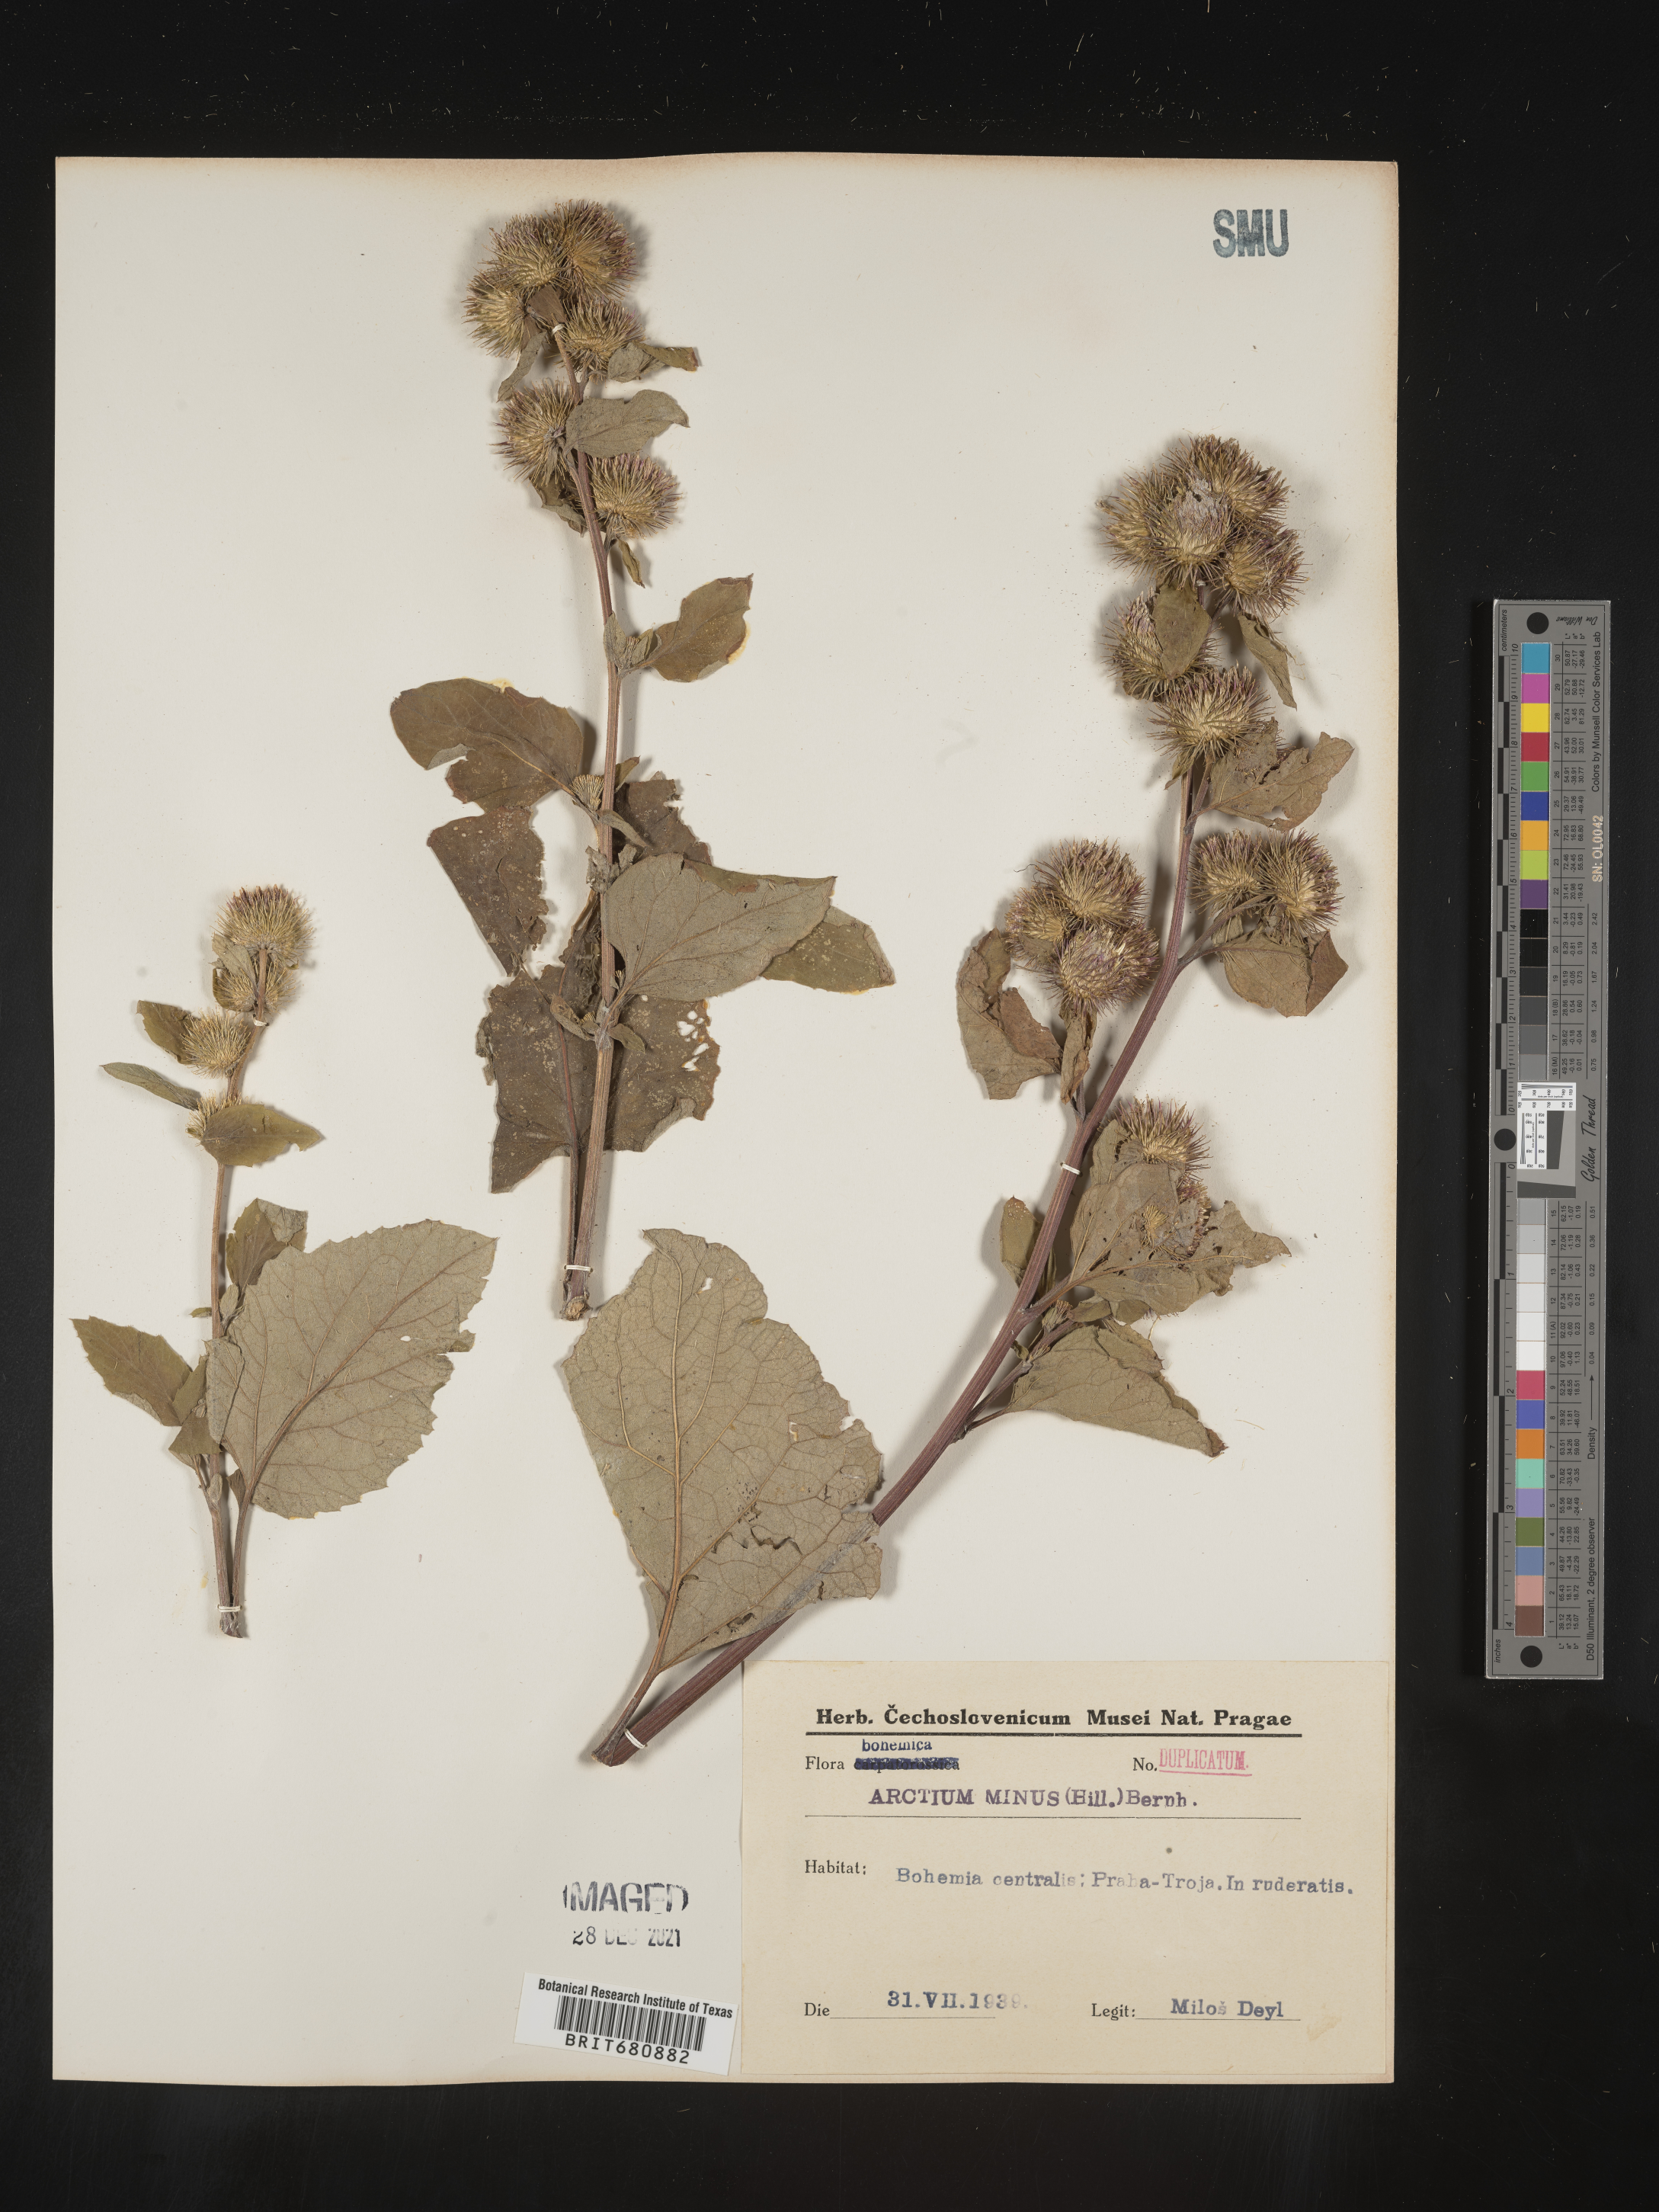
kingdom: Plantae
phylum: Tracheophyta
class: Magnoliopsida
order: Asterales
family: Asteraceae
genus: Arctium
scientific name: Arctium
